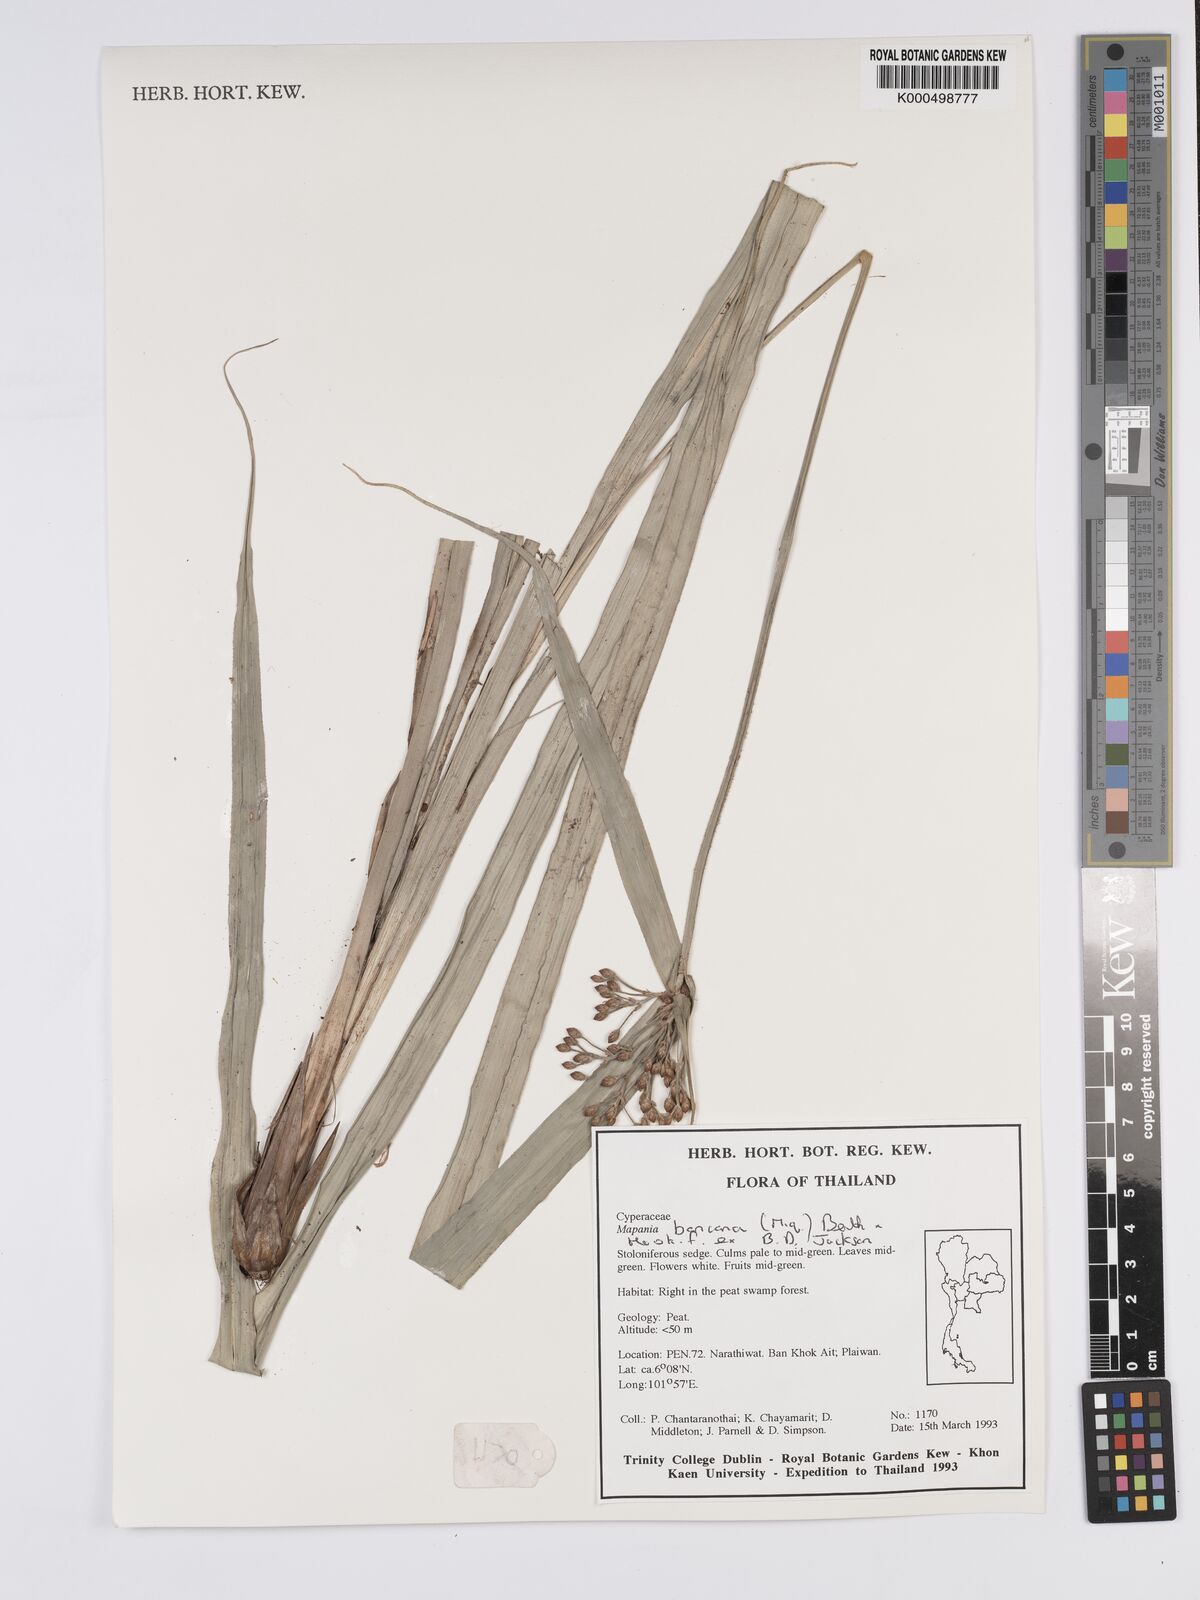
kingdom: Plantae
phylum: Tracheophyta
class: Liliopsida
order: Poales
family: Cyperaceae
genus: Mapania
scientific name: Mapania
